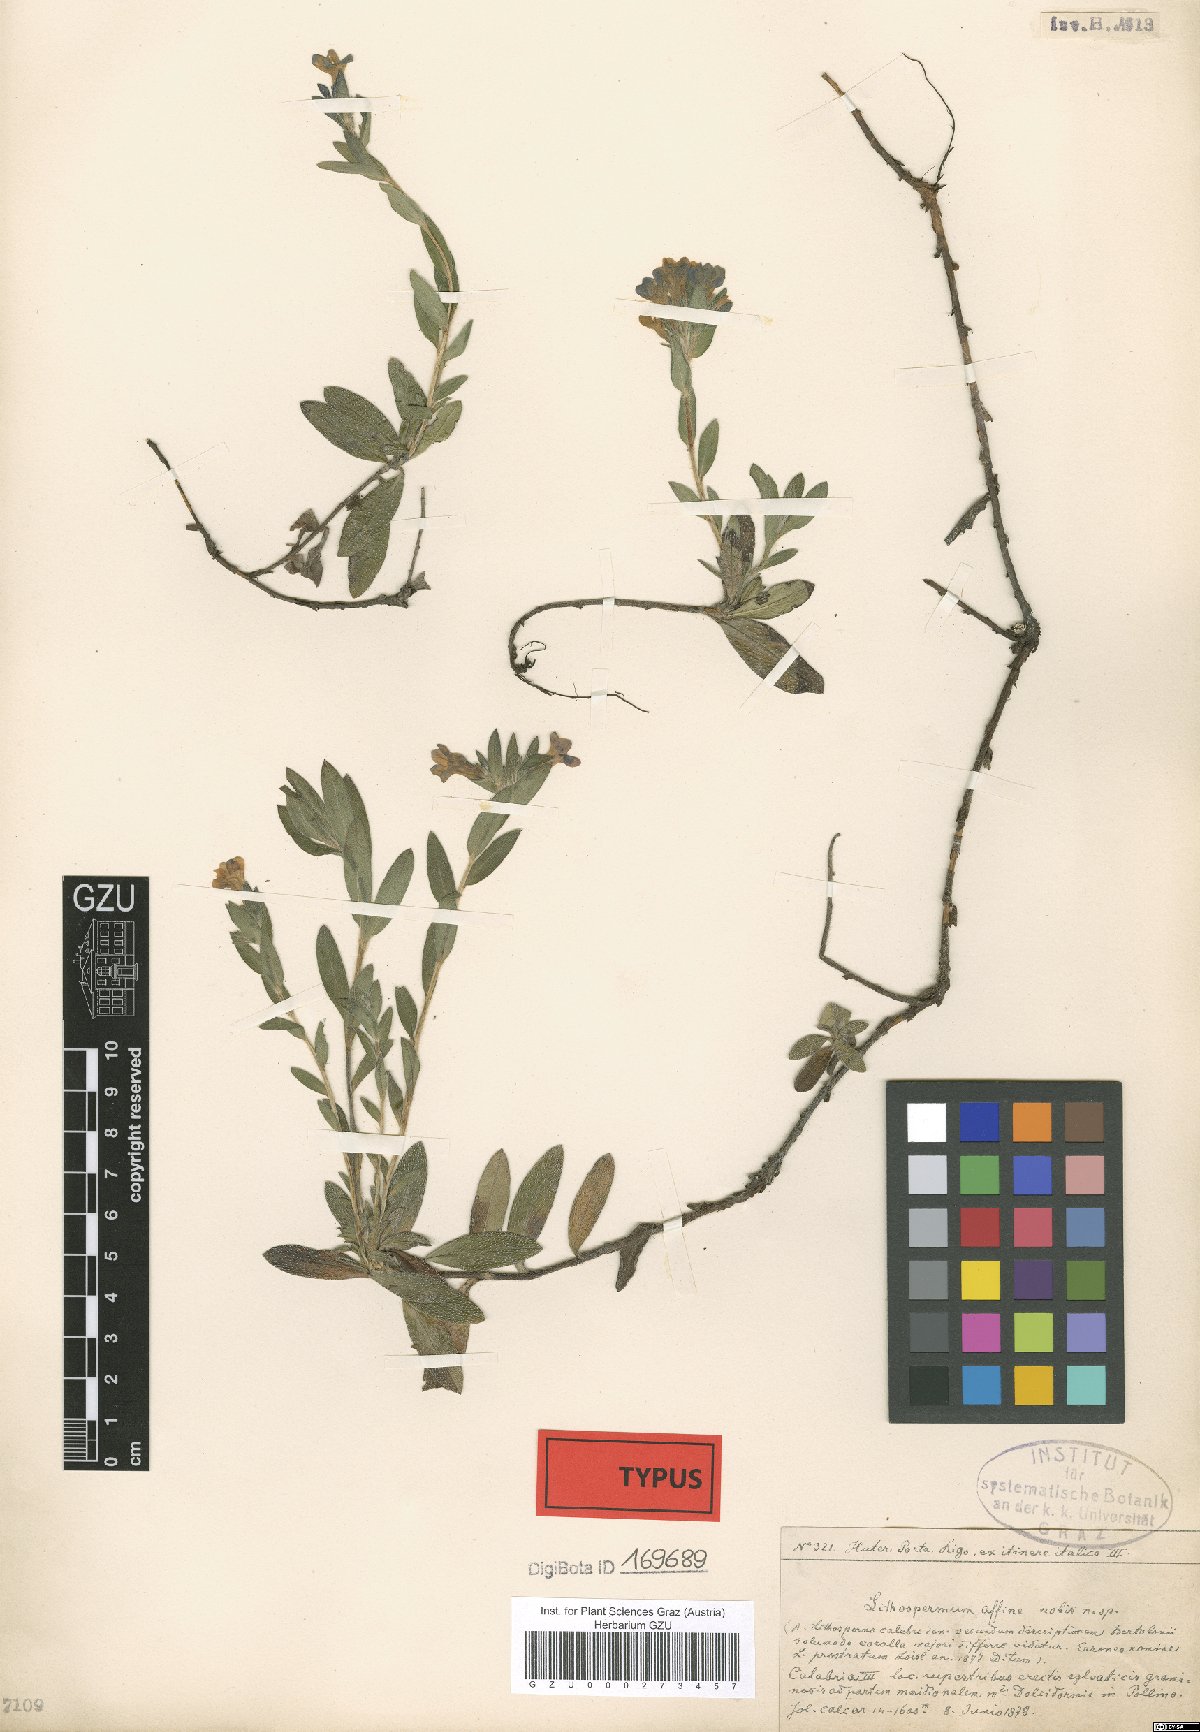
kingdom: Plantae
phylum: Tracheophyta
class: Magnoliopsida
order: Boraginales
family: Boraginaceae
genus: Lithospermum
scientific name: Lithospermum affine
